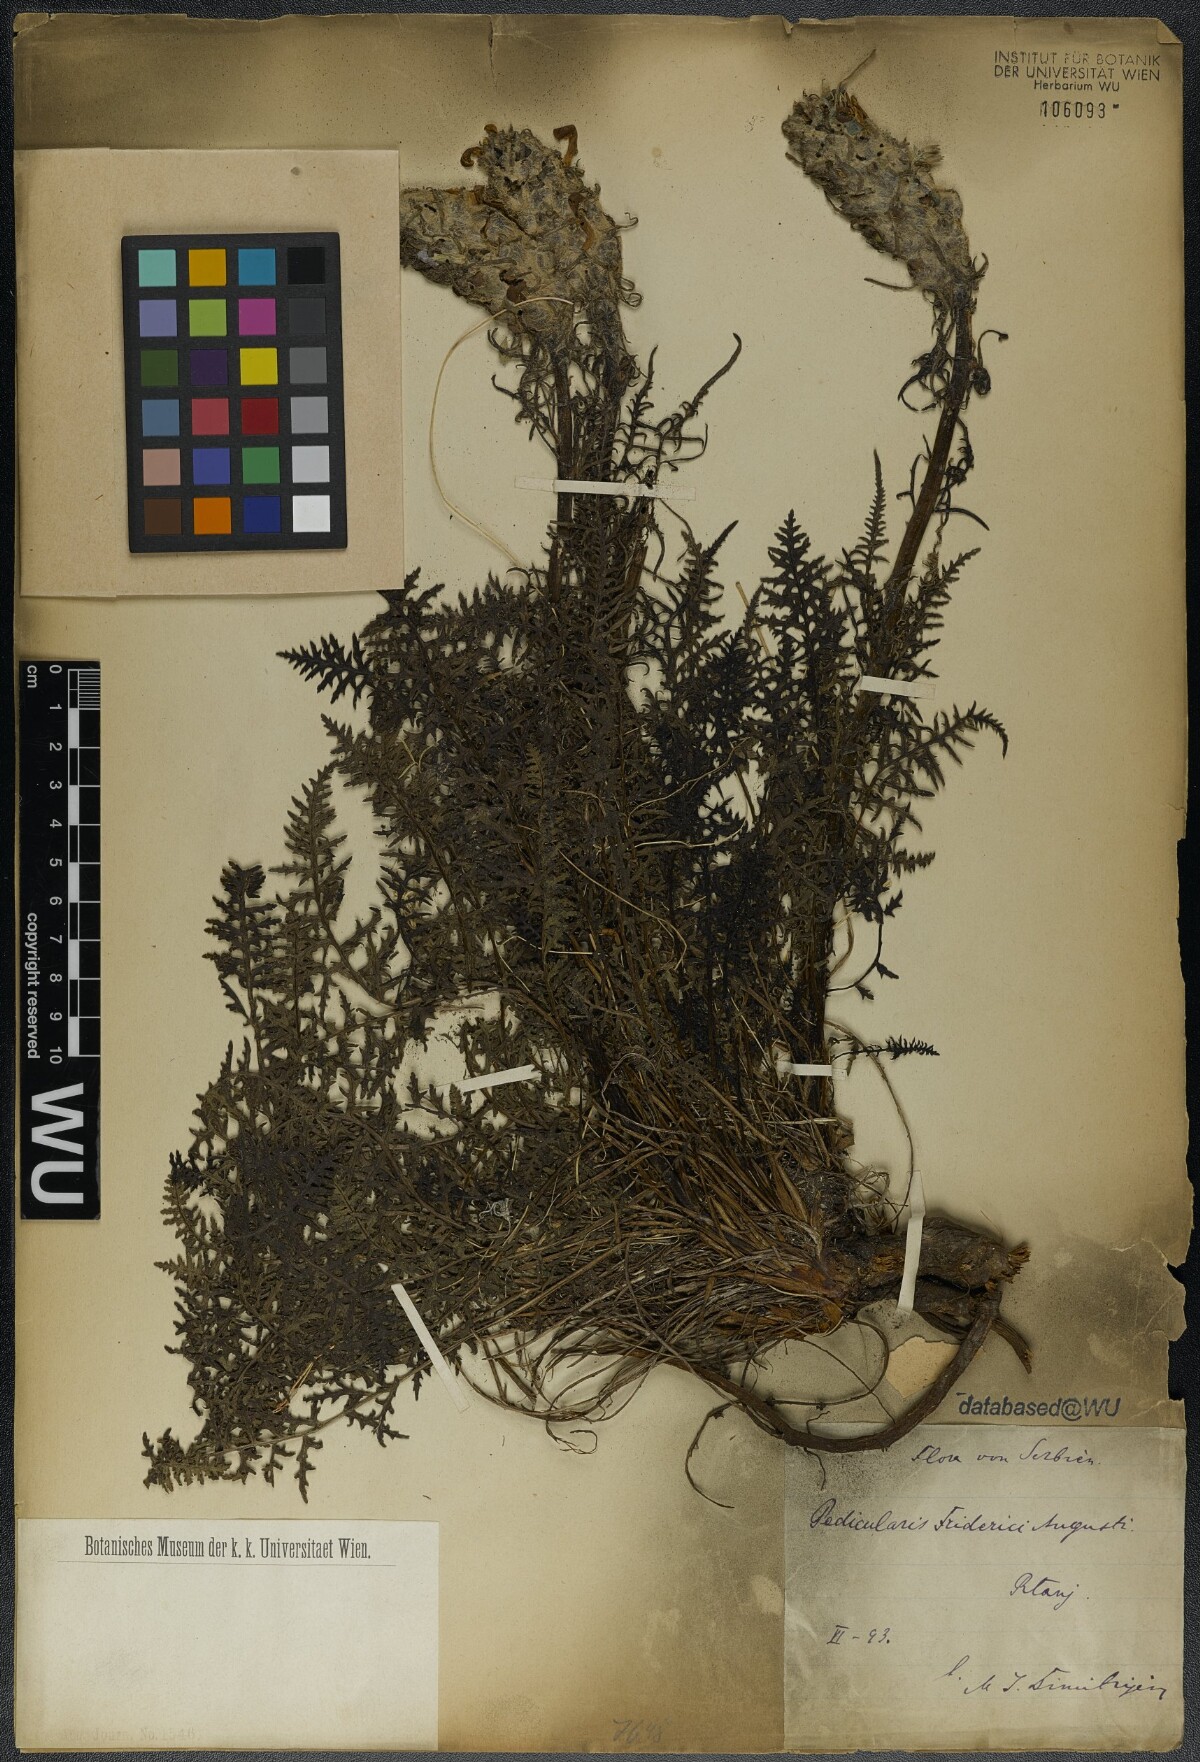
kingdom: Plantae
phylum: Tracheophyta
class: Magnoliopsida
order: Lamiales
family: Orobanchaceae
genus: Pedicularis
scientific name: Pedicularis friderici-augusti
